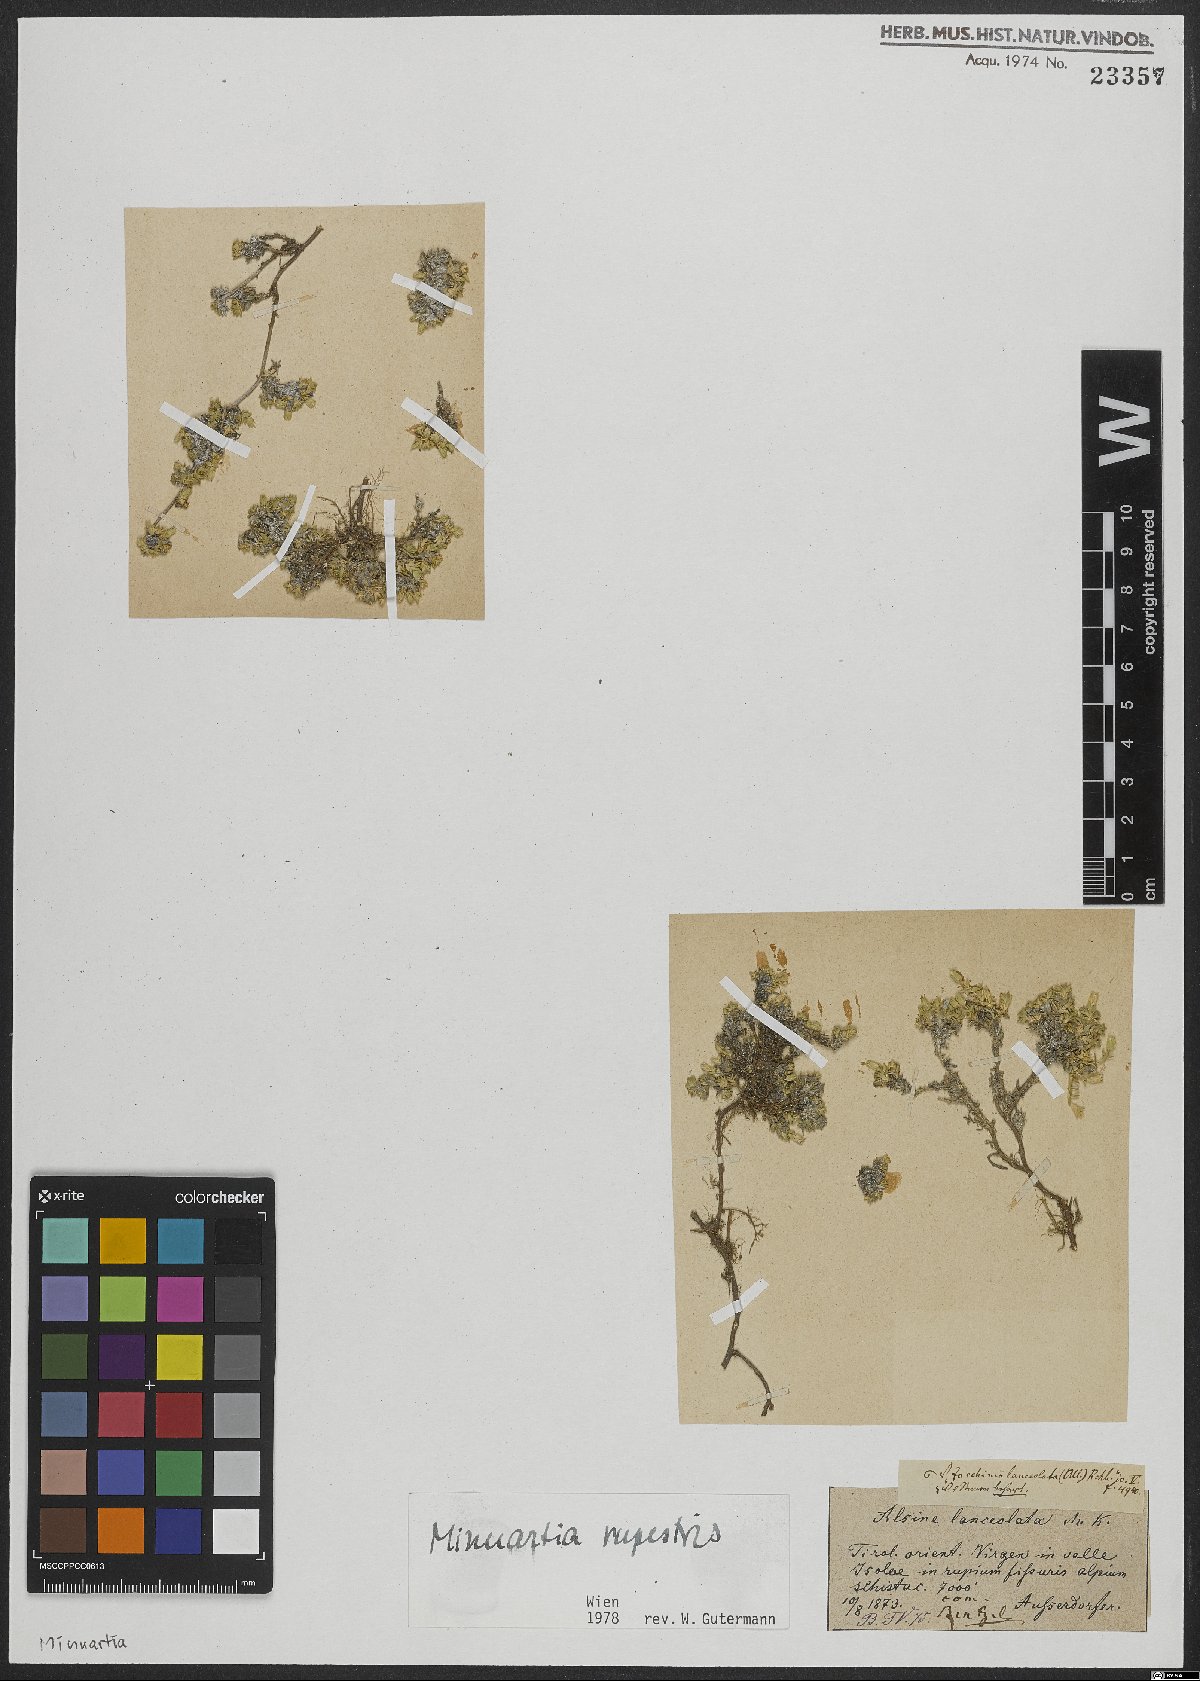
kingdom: Plantae
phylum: Tracheophyta
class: Magnoliopsida
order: Caryophyllales
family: Caryophyllaceae
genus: Facchinia
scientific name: Facchinia rupestris
